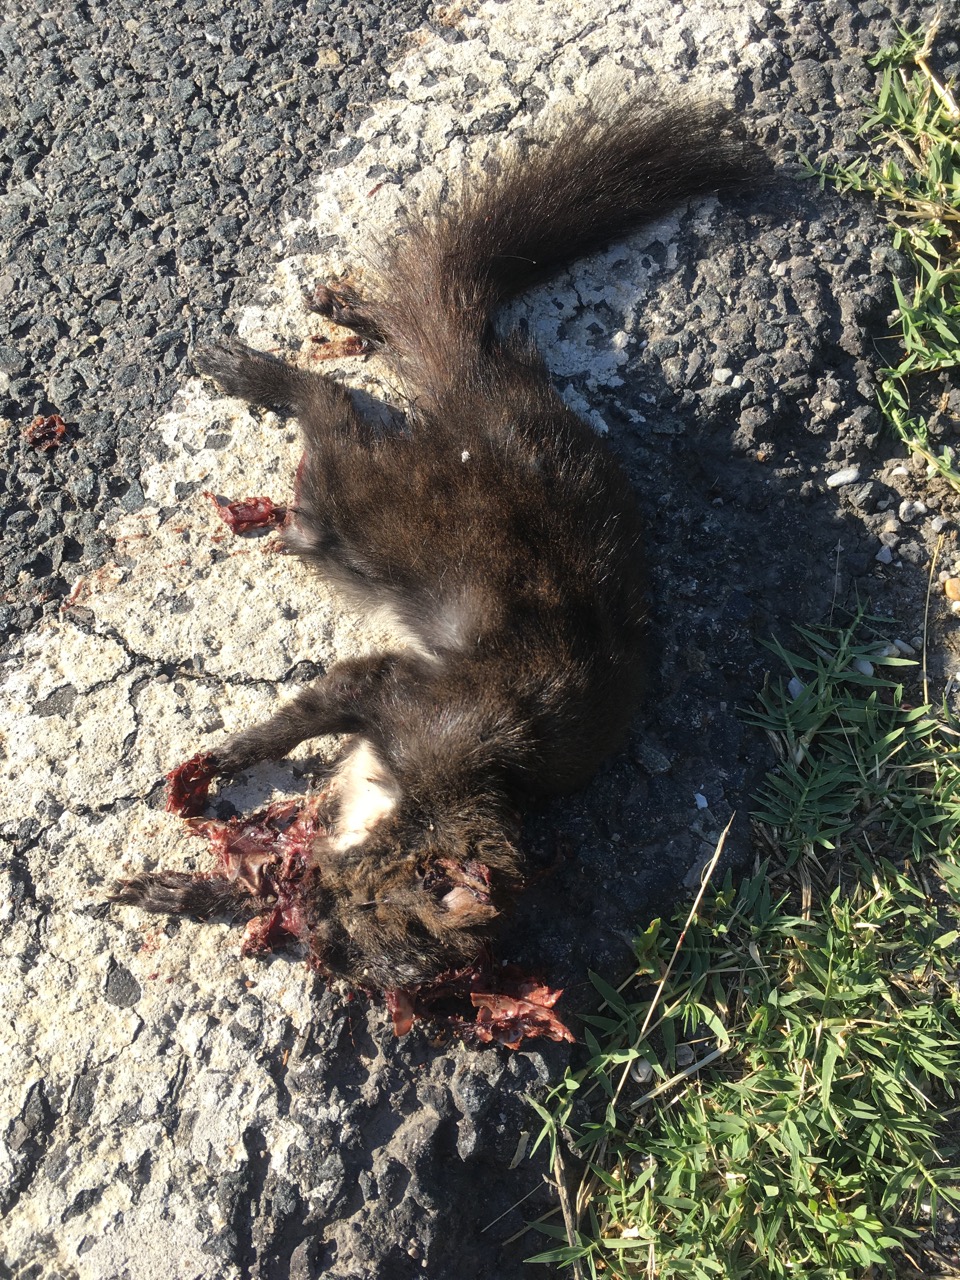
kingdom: Animalia
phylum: Chordata
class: Mammalia
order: Rodentia
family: Sciuridae
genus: Sciurus
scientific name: Sciurus vulgaris
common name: Eurasian red squirrel
